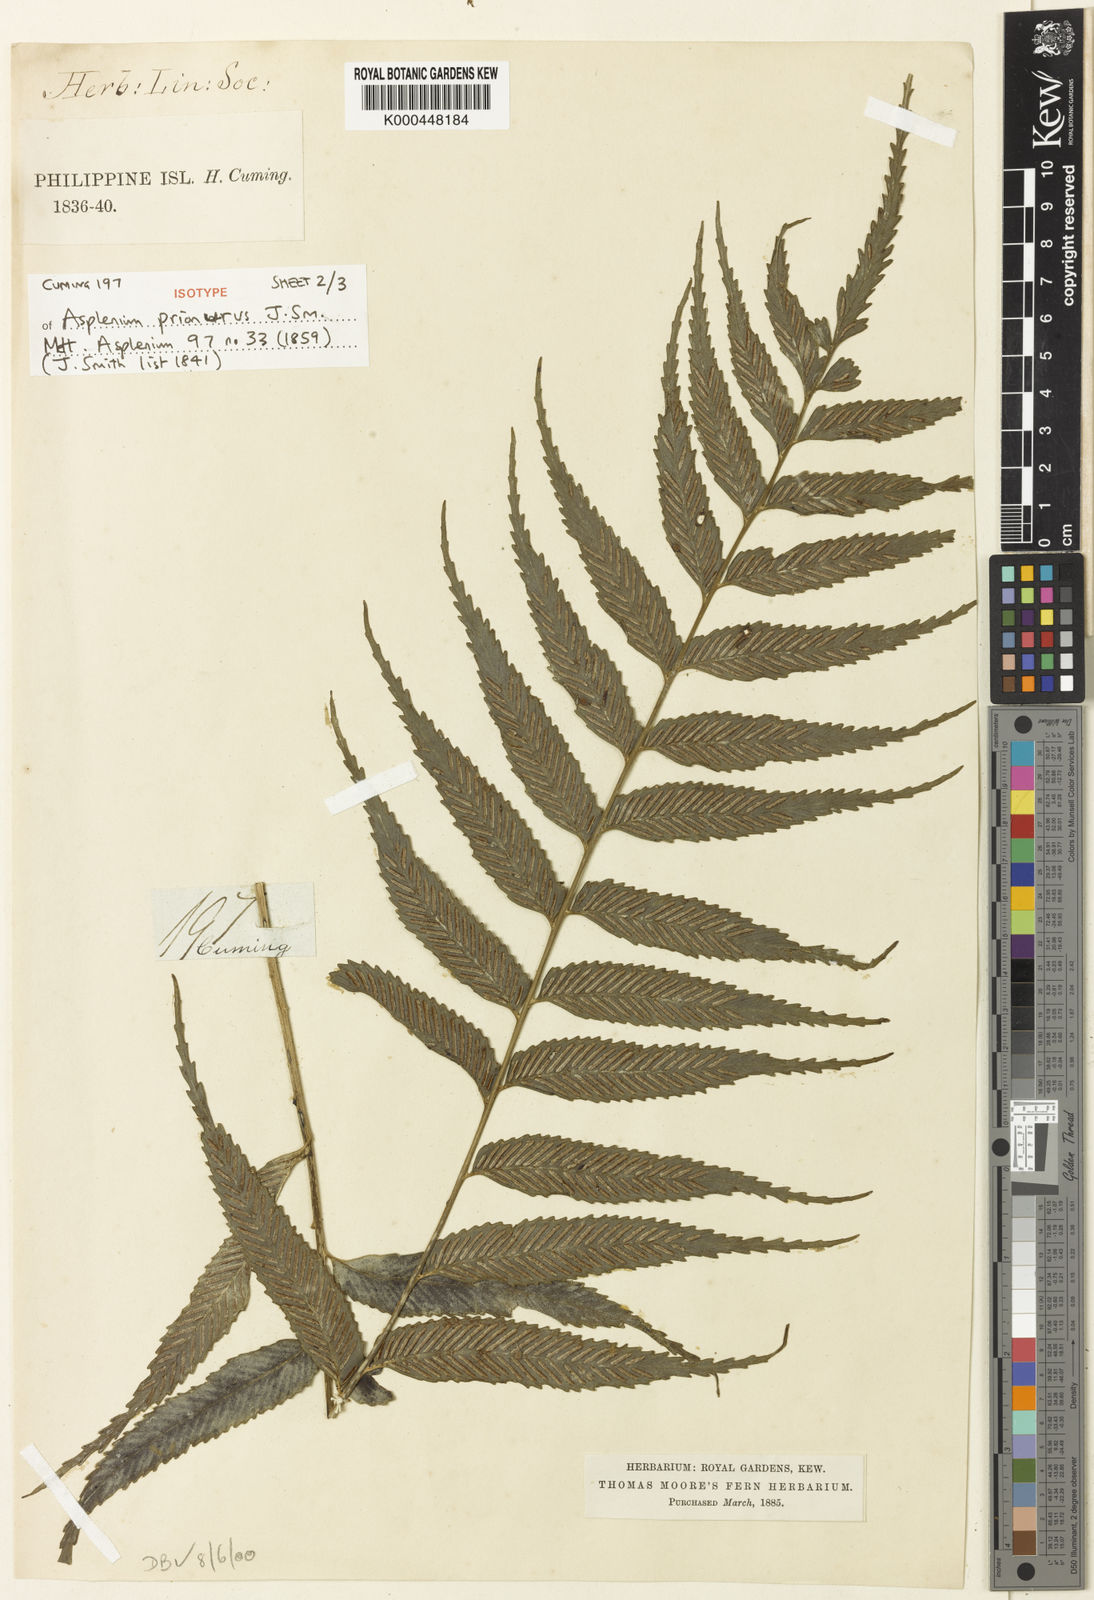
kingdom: Plantae
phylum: Tracheophyta
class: Polypodiopsida
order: Polypodiales
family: Aspleniaceae
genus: Asplenium
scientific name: Asplenium prionurus
